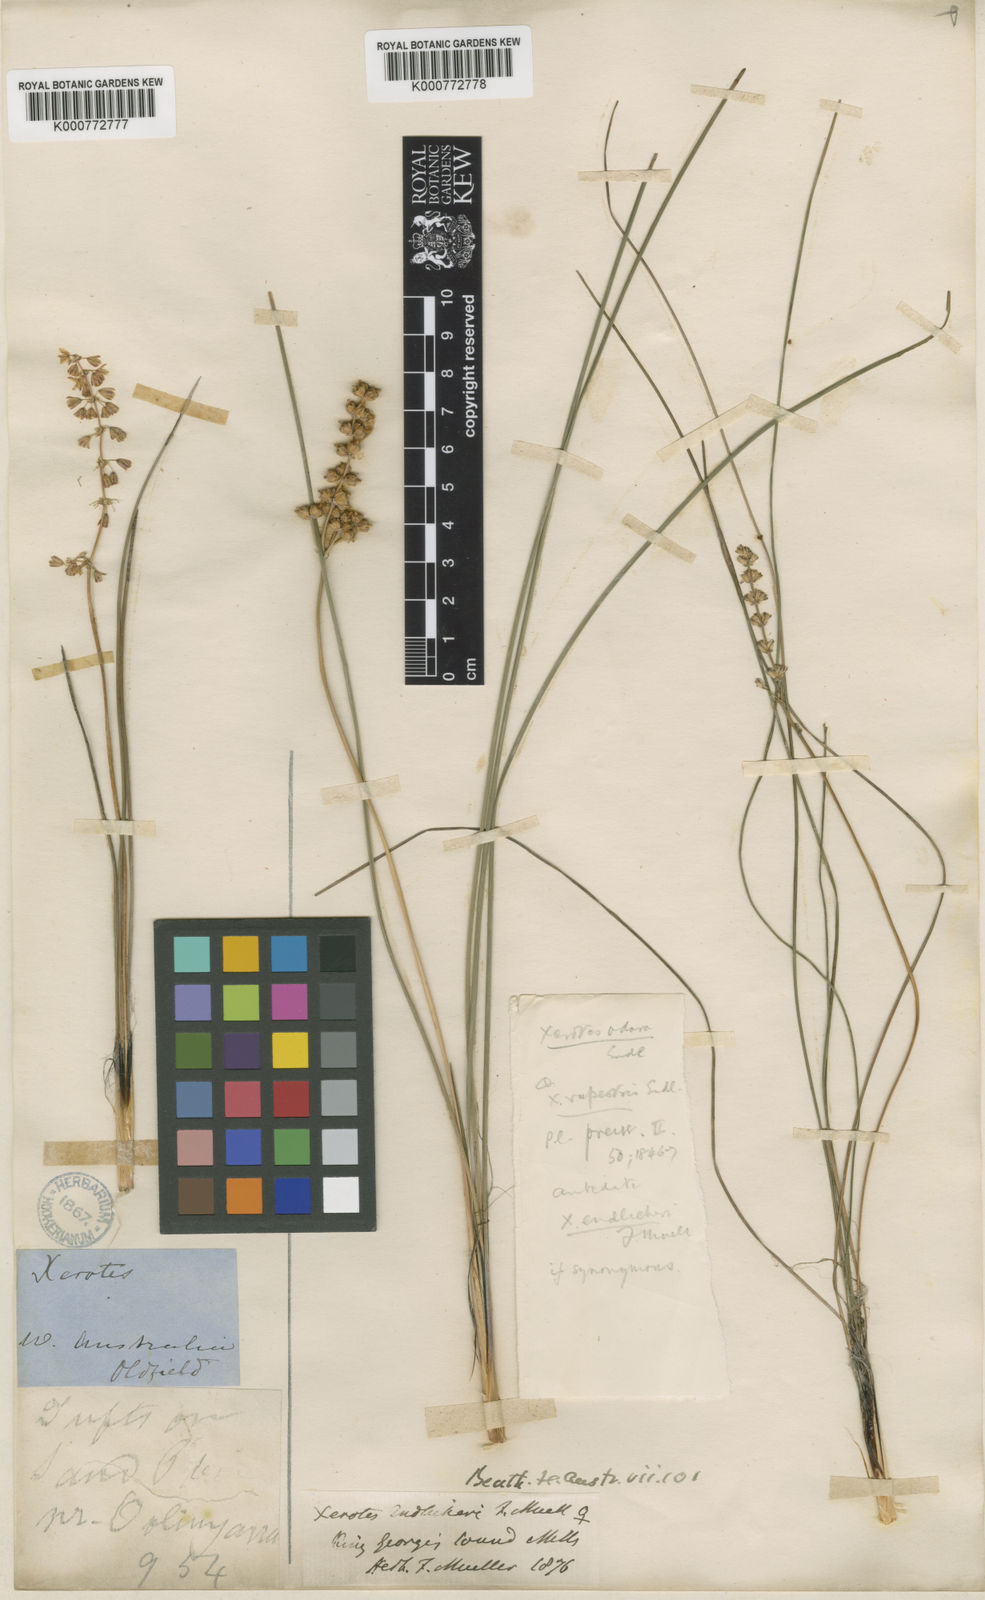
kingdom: Plantae
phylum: Tracheophyta
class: Liliopsida
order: Asparagales
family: Asparagaceae
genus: Lomandra
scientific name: Lomandra odora
